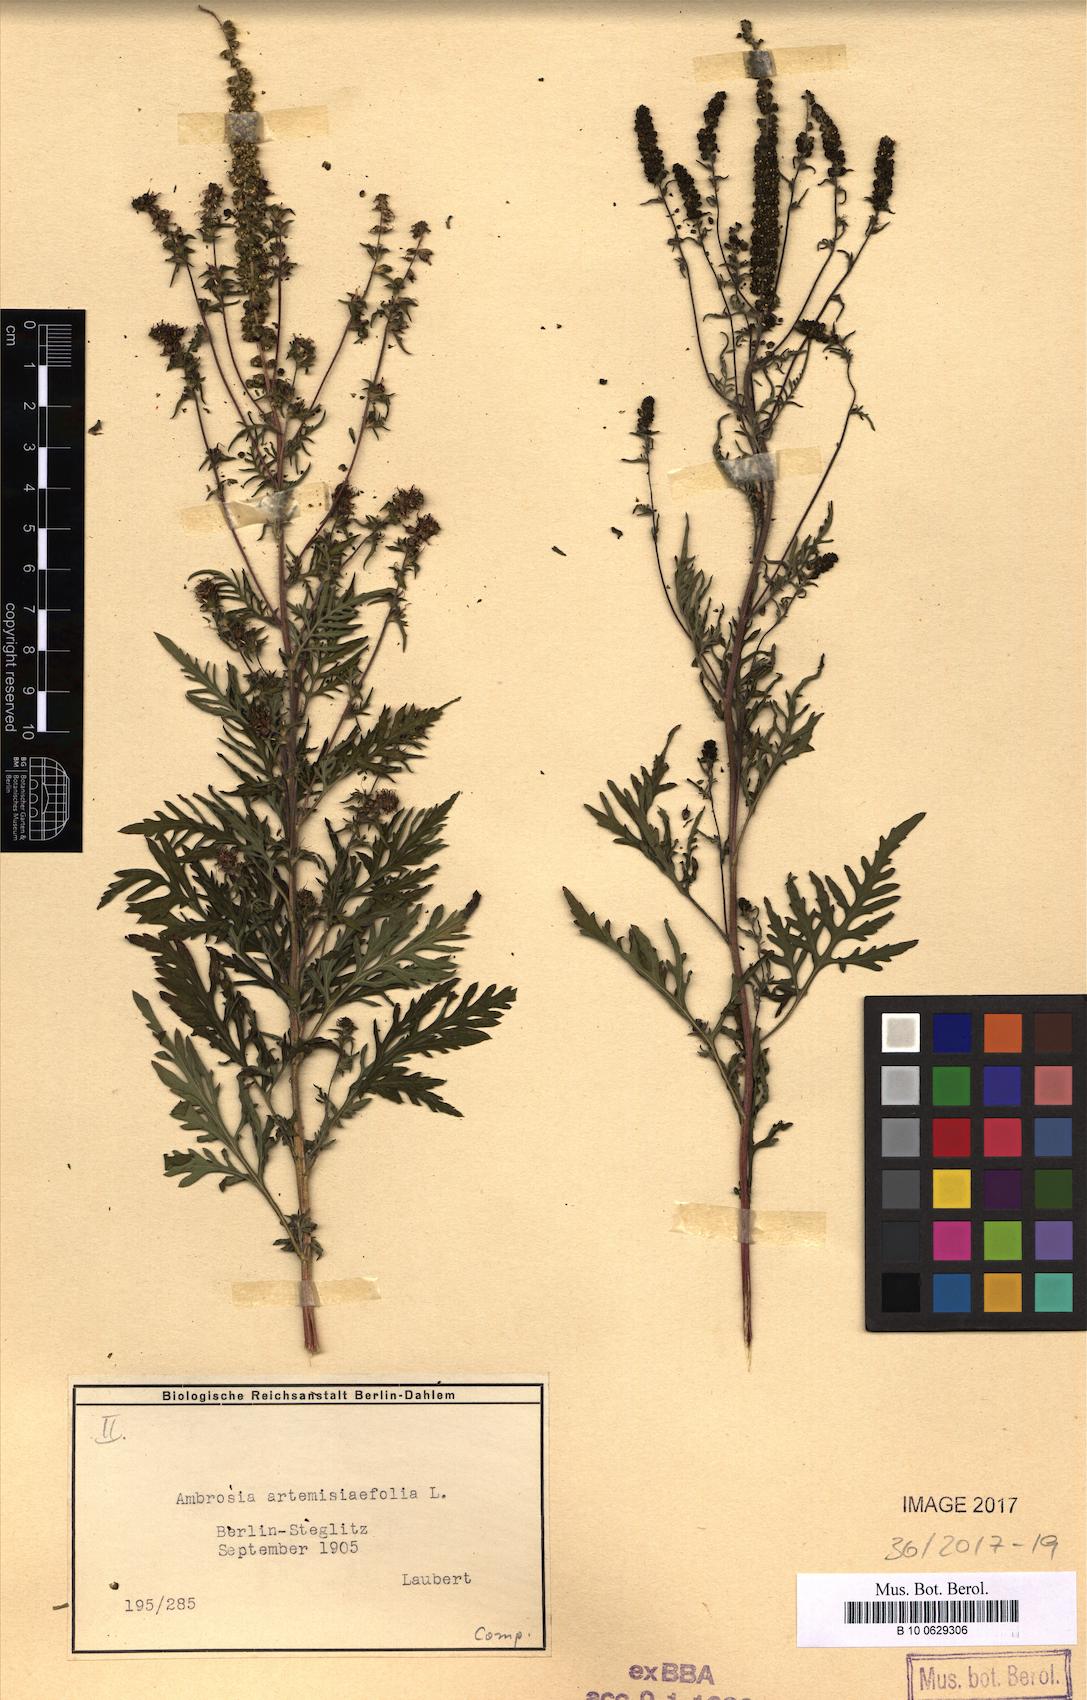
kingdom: Plantae
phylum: Tracheophyta
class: Magnoliopsida
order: Asterales
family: Asteraceae
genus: Ambrosia
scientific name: Ambrosia artemisiifolia
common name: Annual ragweed
